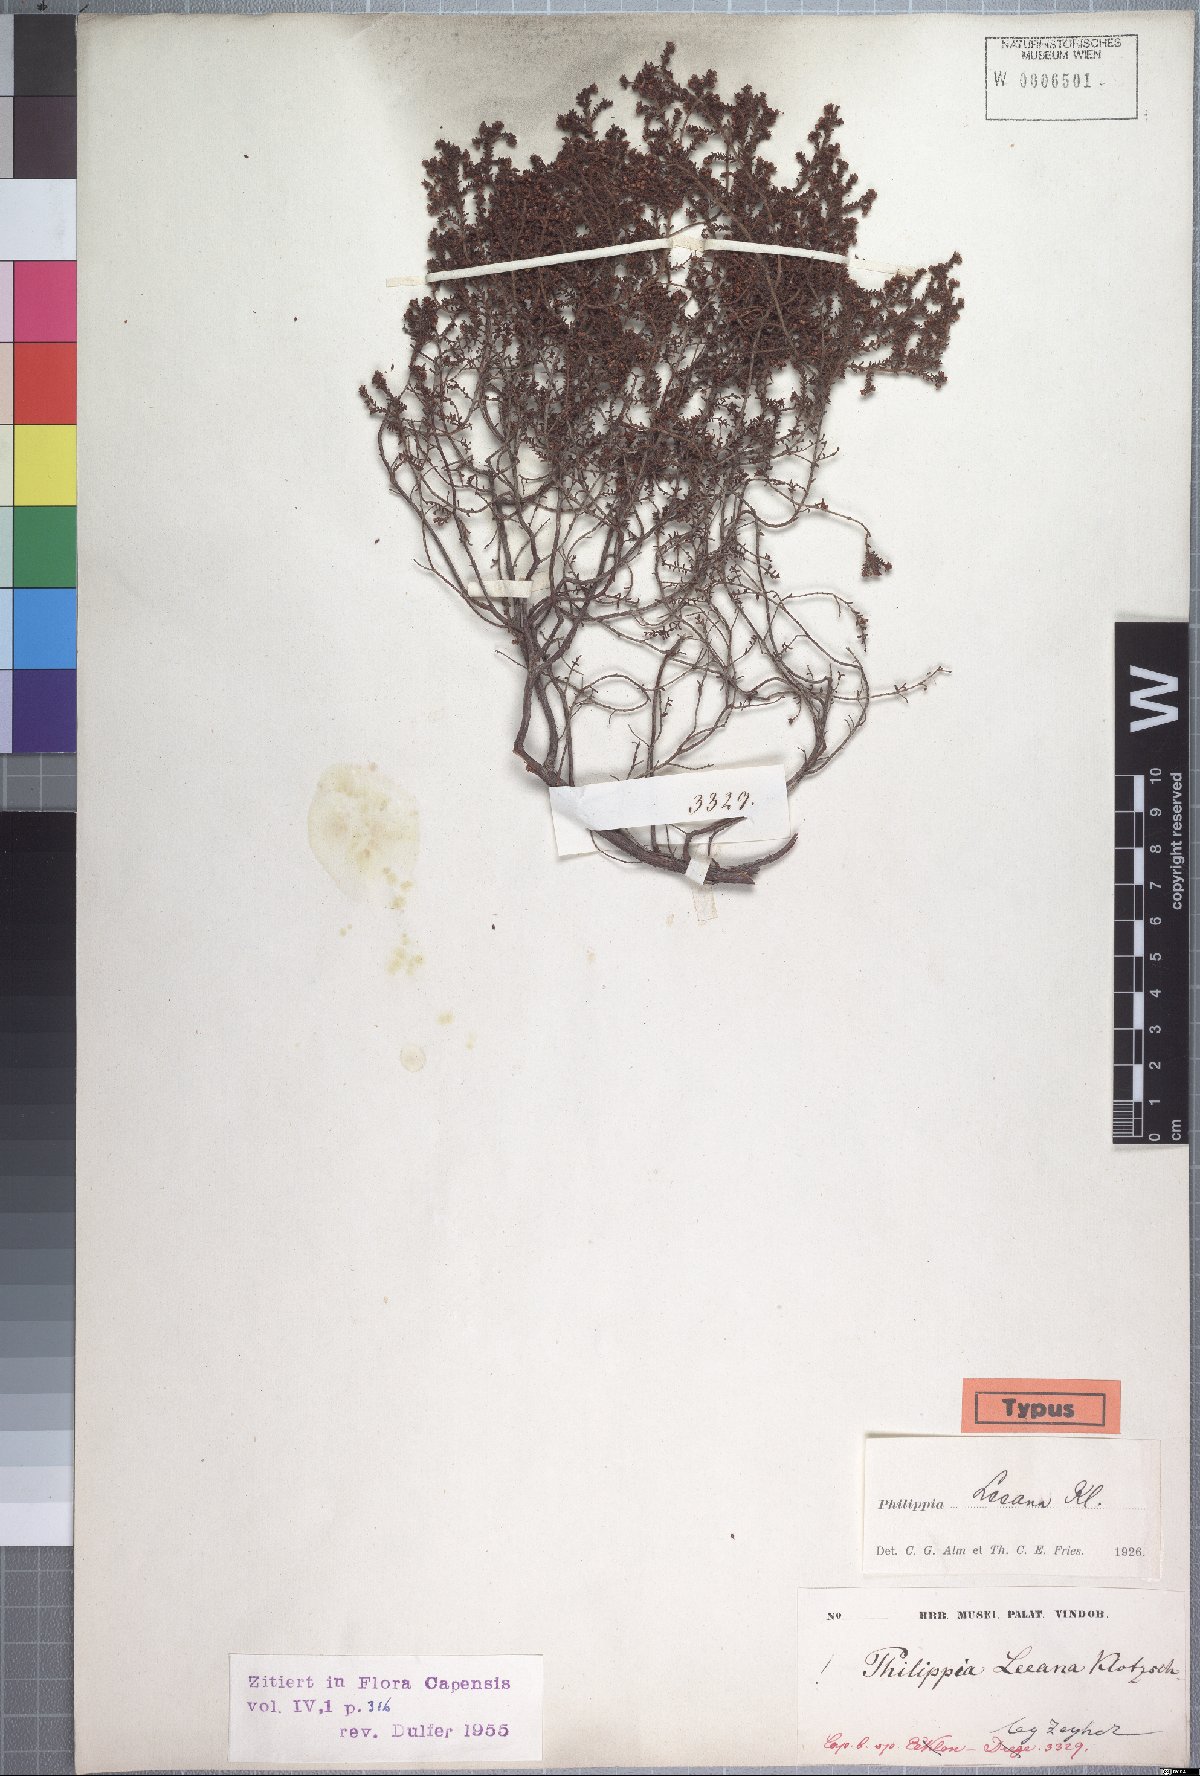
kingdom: Plantae
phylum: Tracheophyta
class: Magnoliopsida
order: Ericales
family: Ericaceae
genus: Erica
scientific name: Erica exleeana
